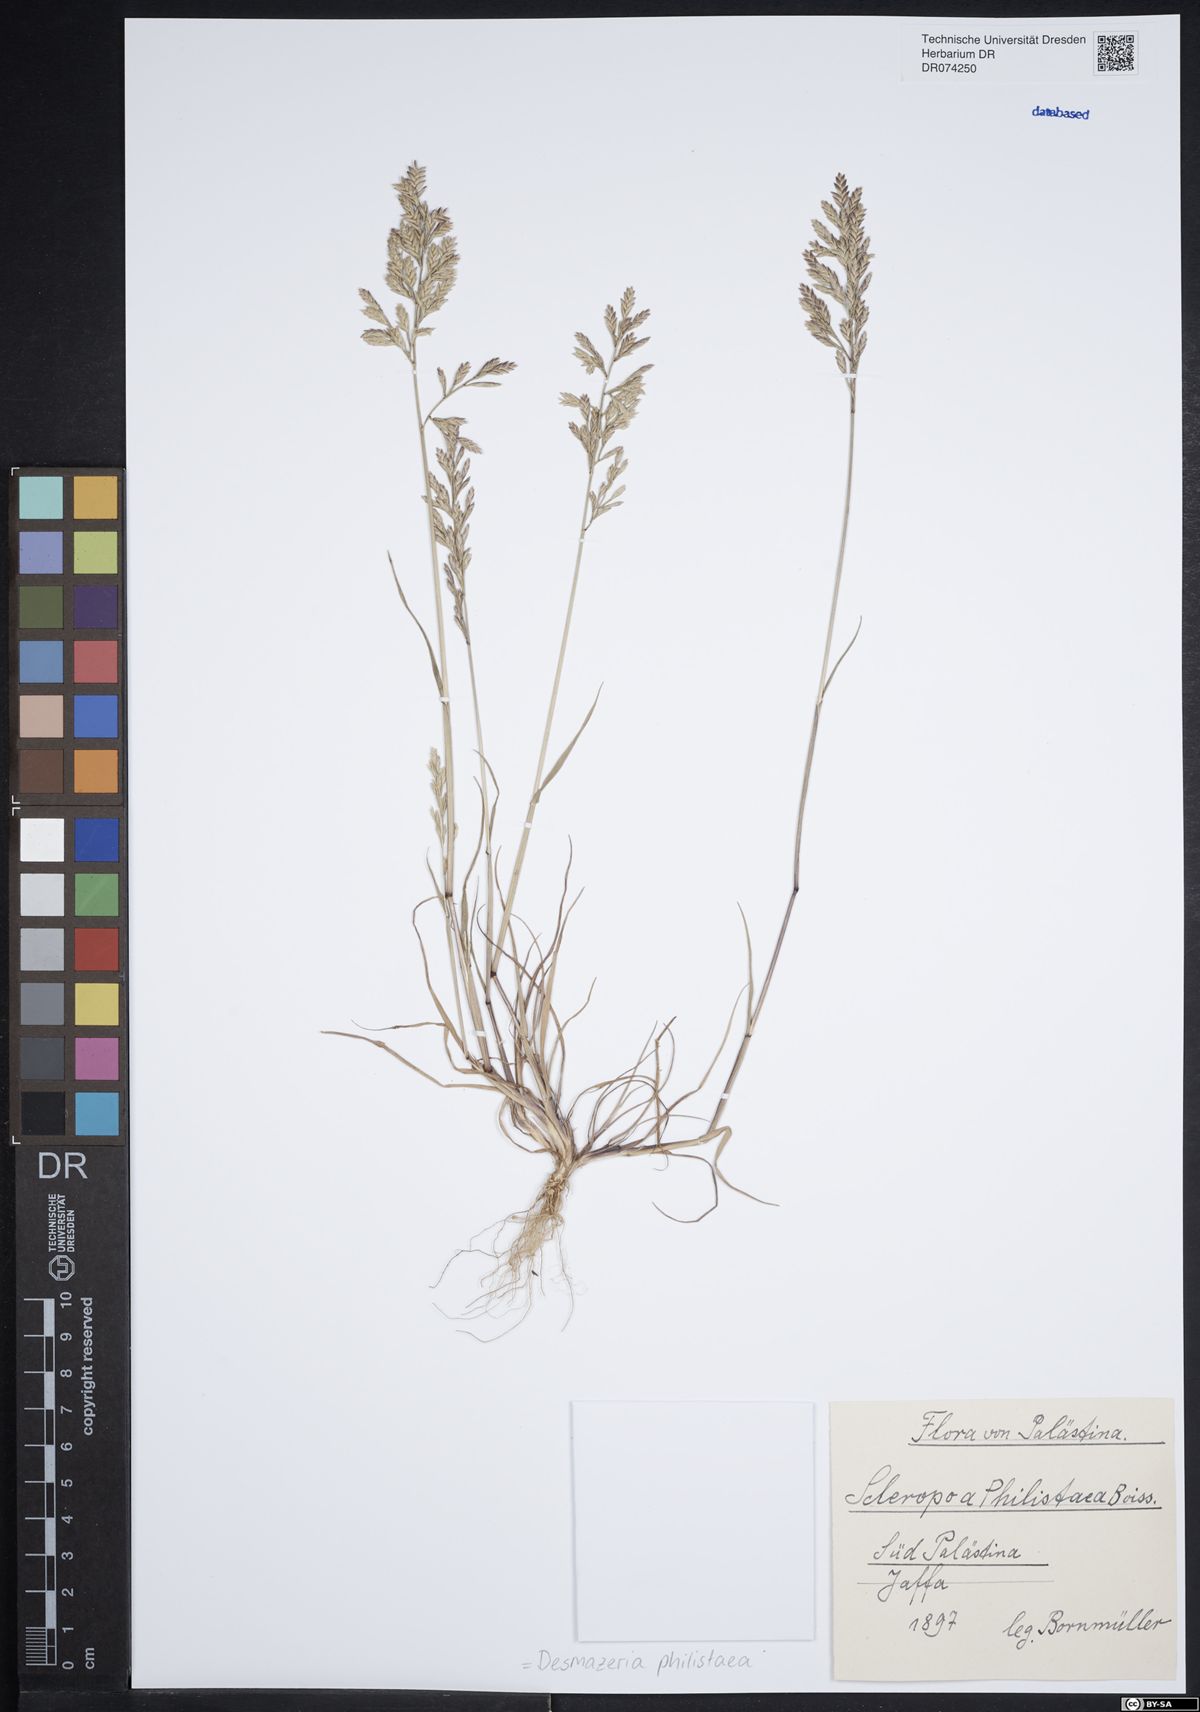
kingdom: Plantae
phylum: Tracheophyta
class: Liliopsida
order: Poales
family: Poaceae
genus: Desmazeria
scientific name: Desmazeria philistaea
